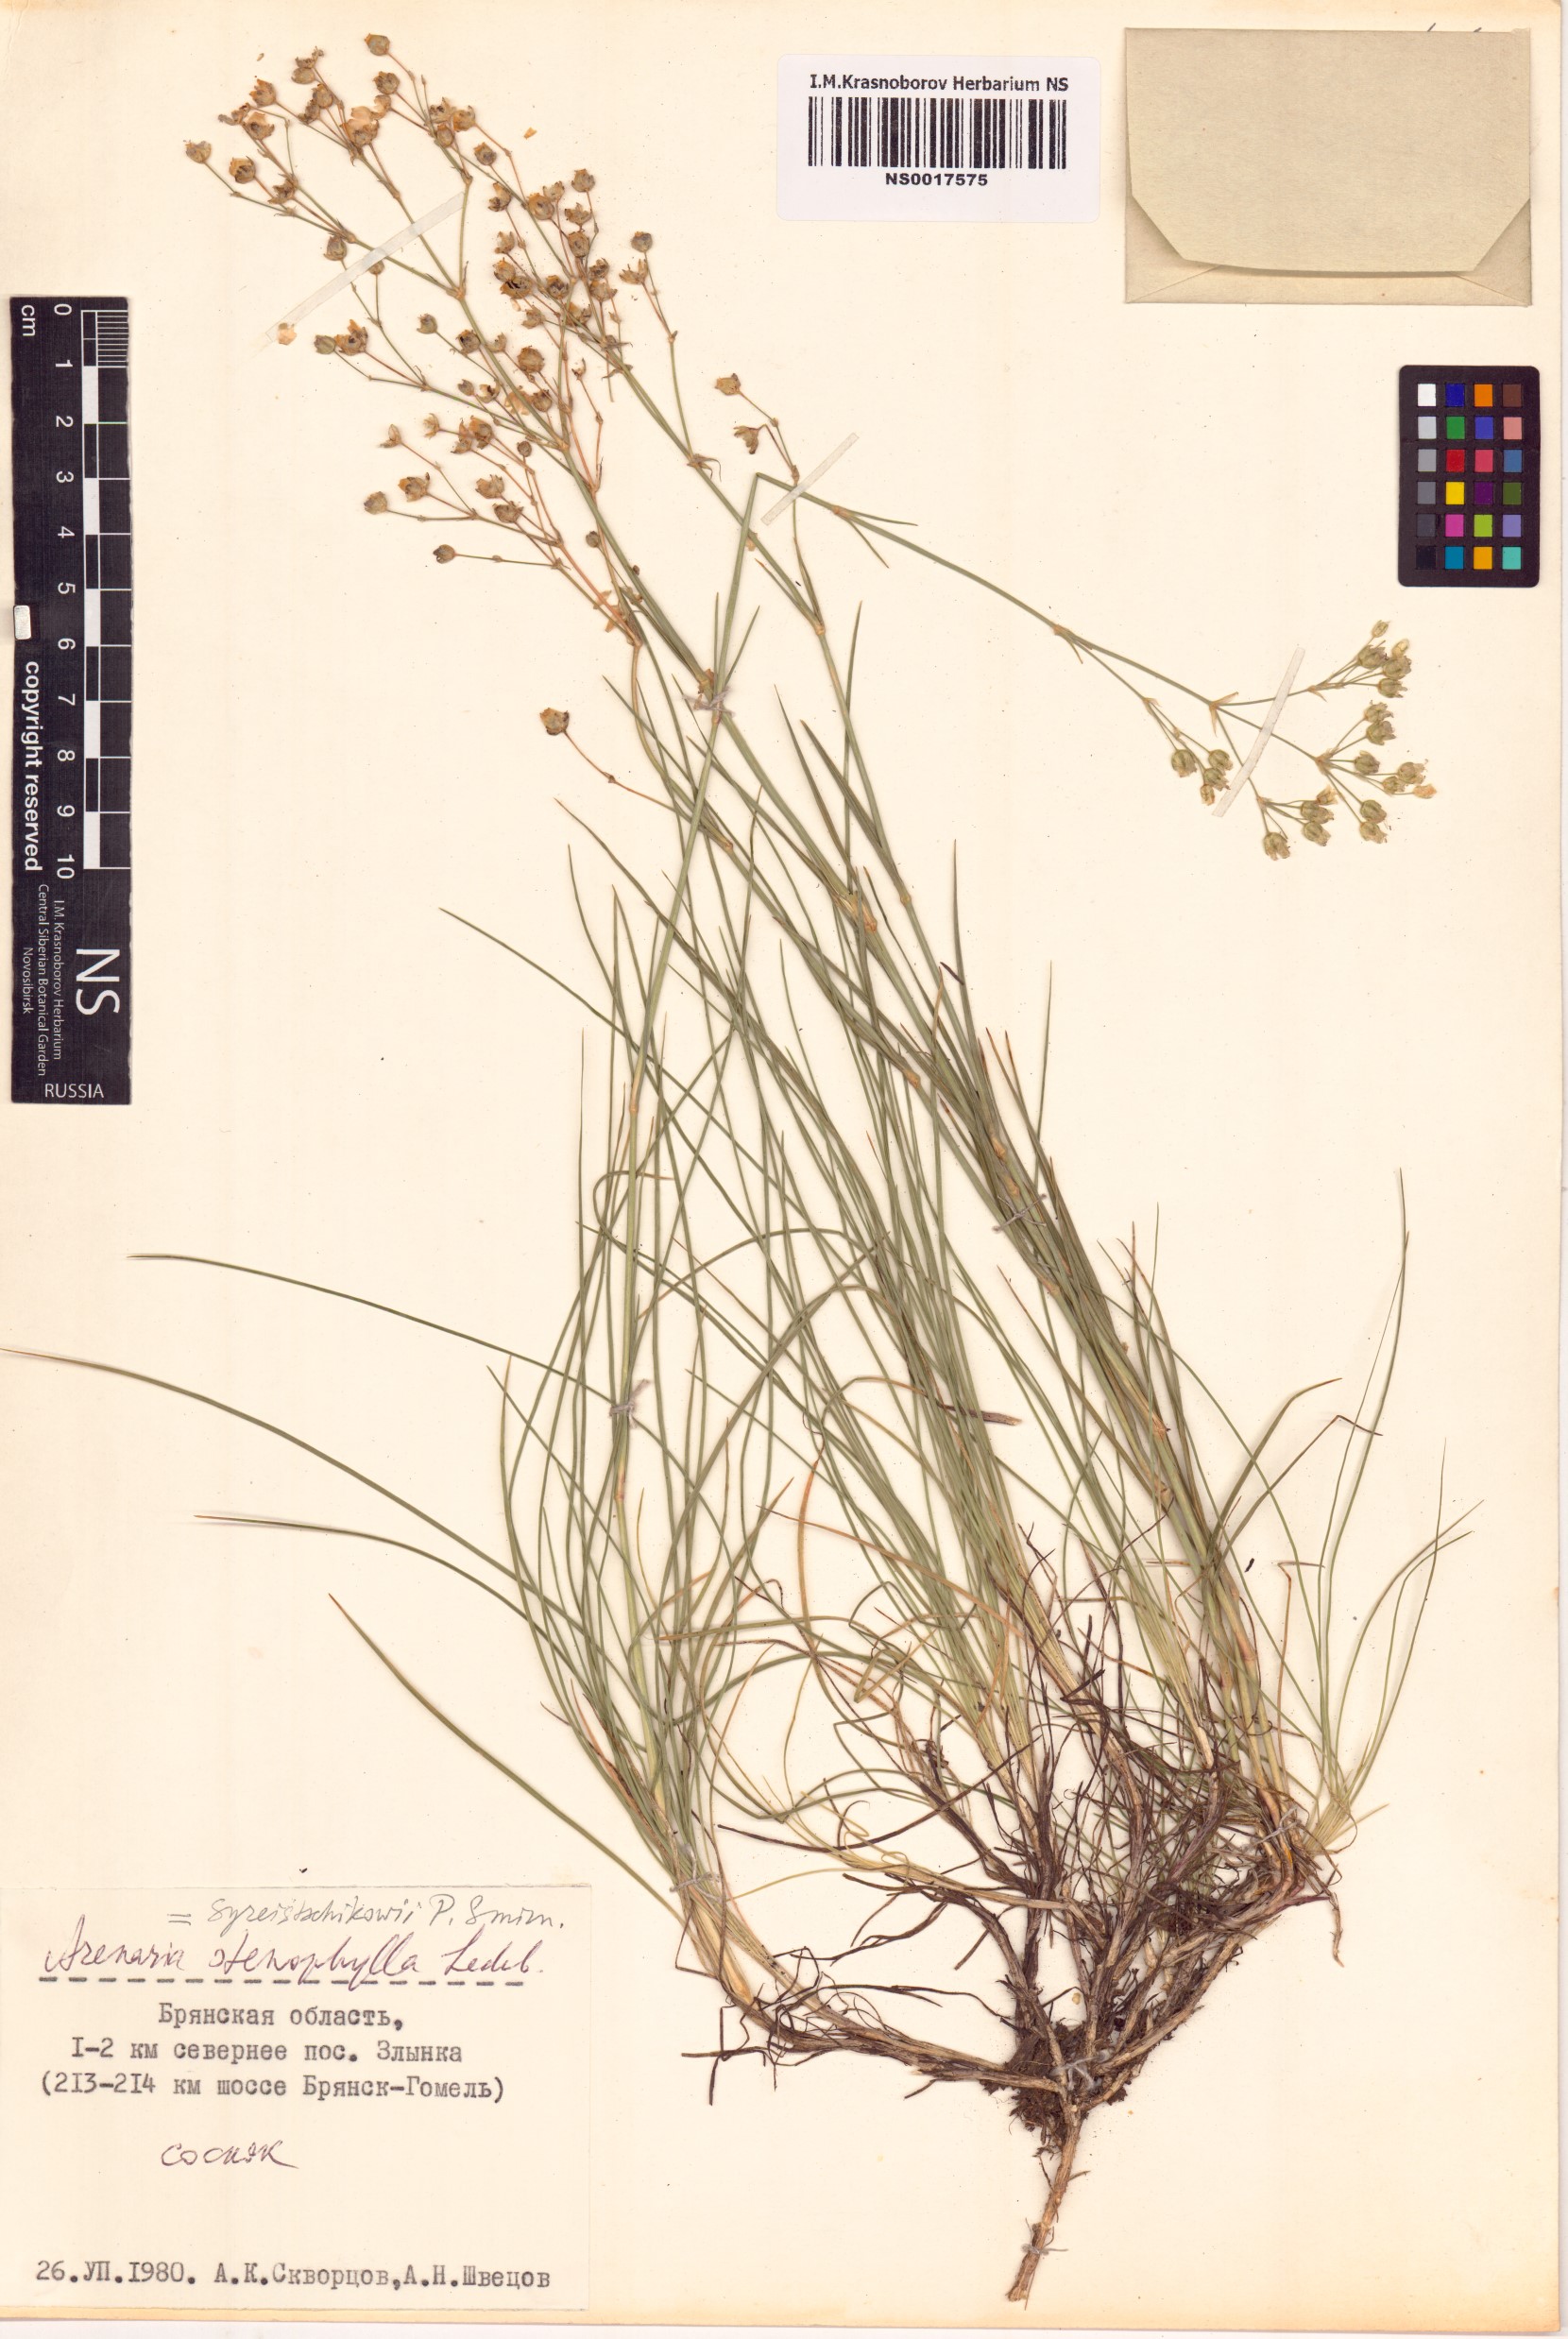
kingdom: Plantae
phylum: Tracheophyta
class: Magnoliopsida
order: Caryophyllales
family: Caryophyllaceae
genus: Eremogone
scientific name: Eremogone saxatilis
